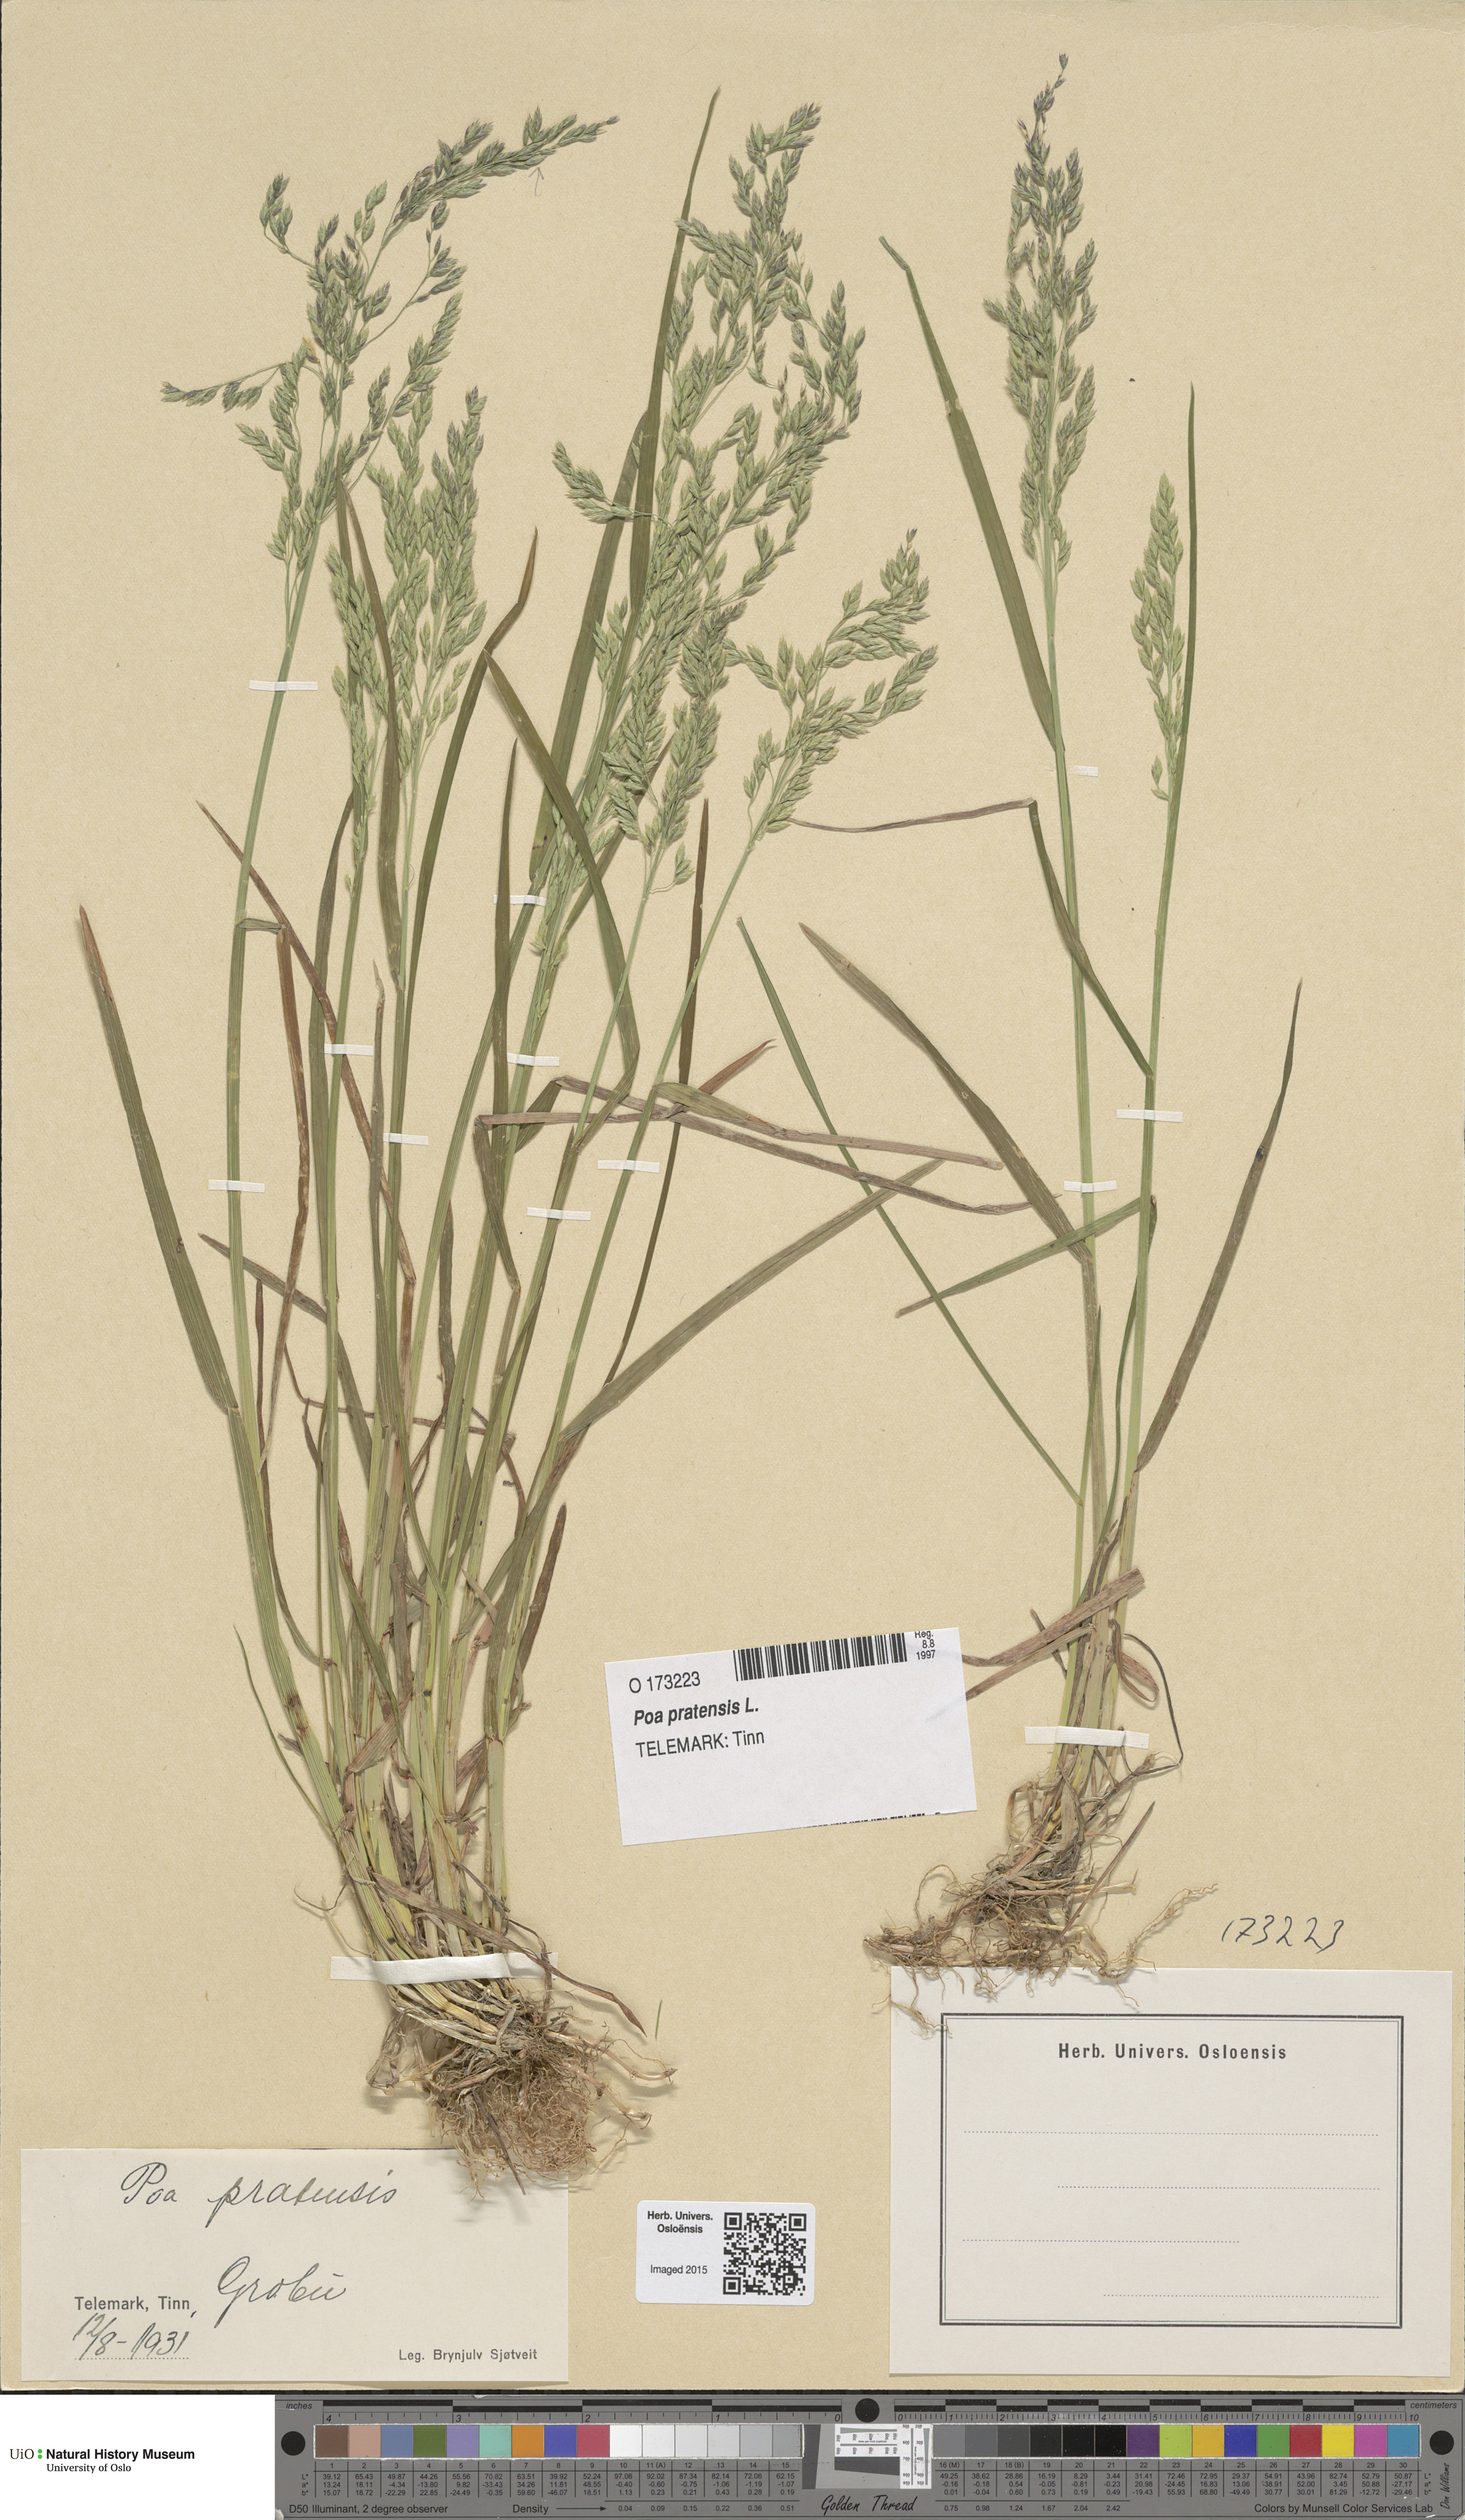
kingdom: Plantae
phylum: Tracheophyta
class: Liliopsida
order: Poales
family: Poaceae
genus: Poa
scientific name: Poa pratensis
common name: Kentucky bluegrass
